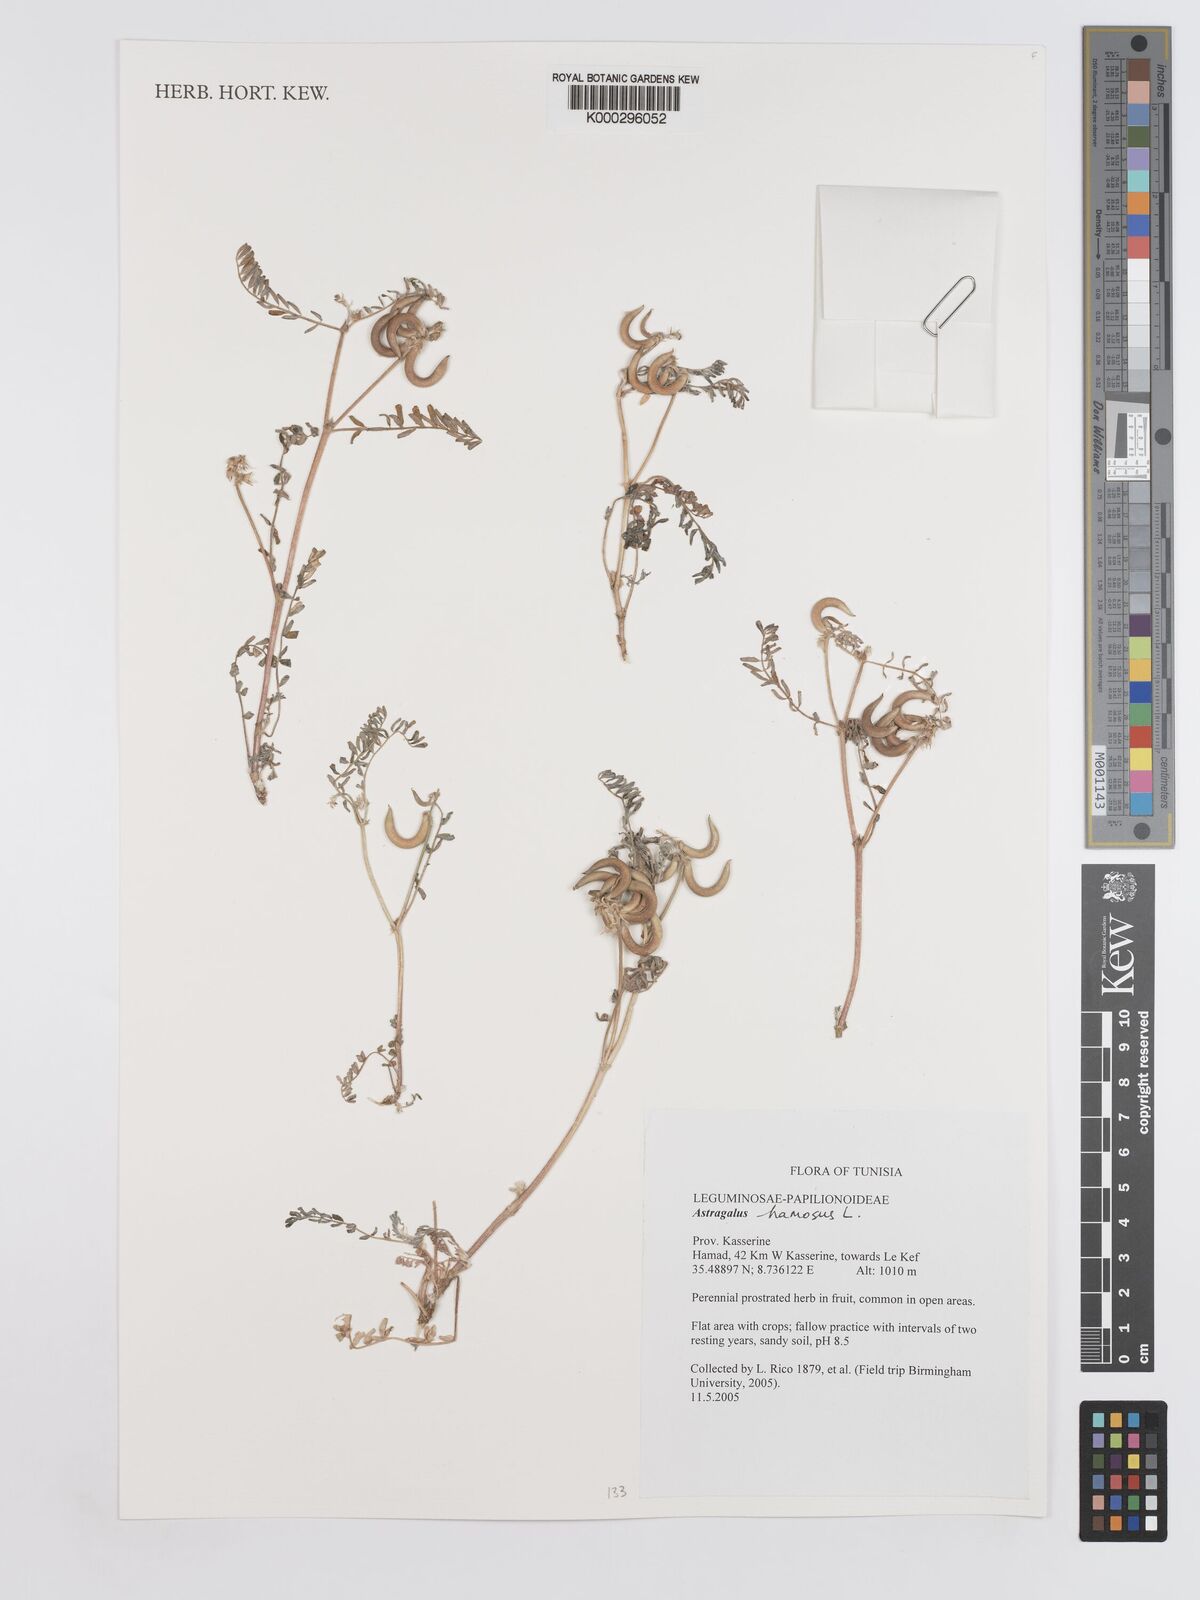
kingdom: Plantae
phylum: Tracheophyta
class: Magnoliopsida
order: Fabales
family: Fabaceae
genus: Astragalus
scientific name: Astragalus
